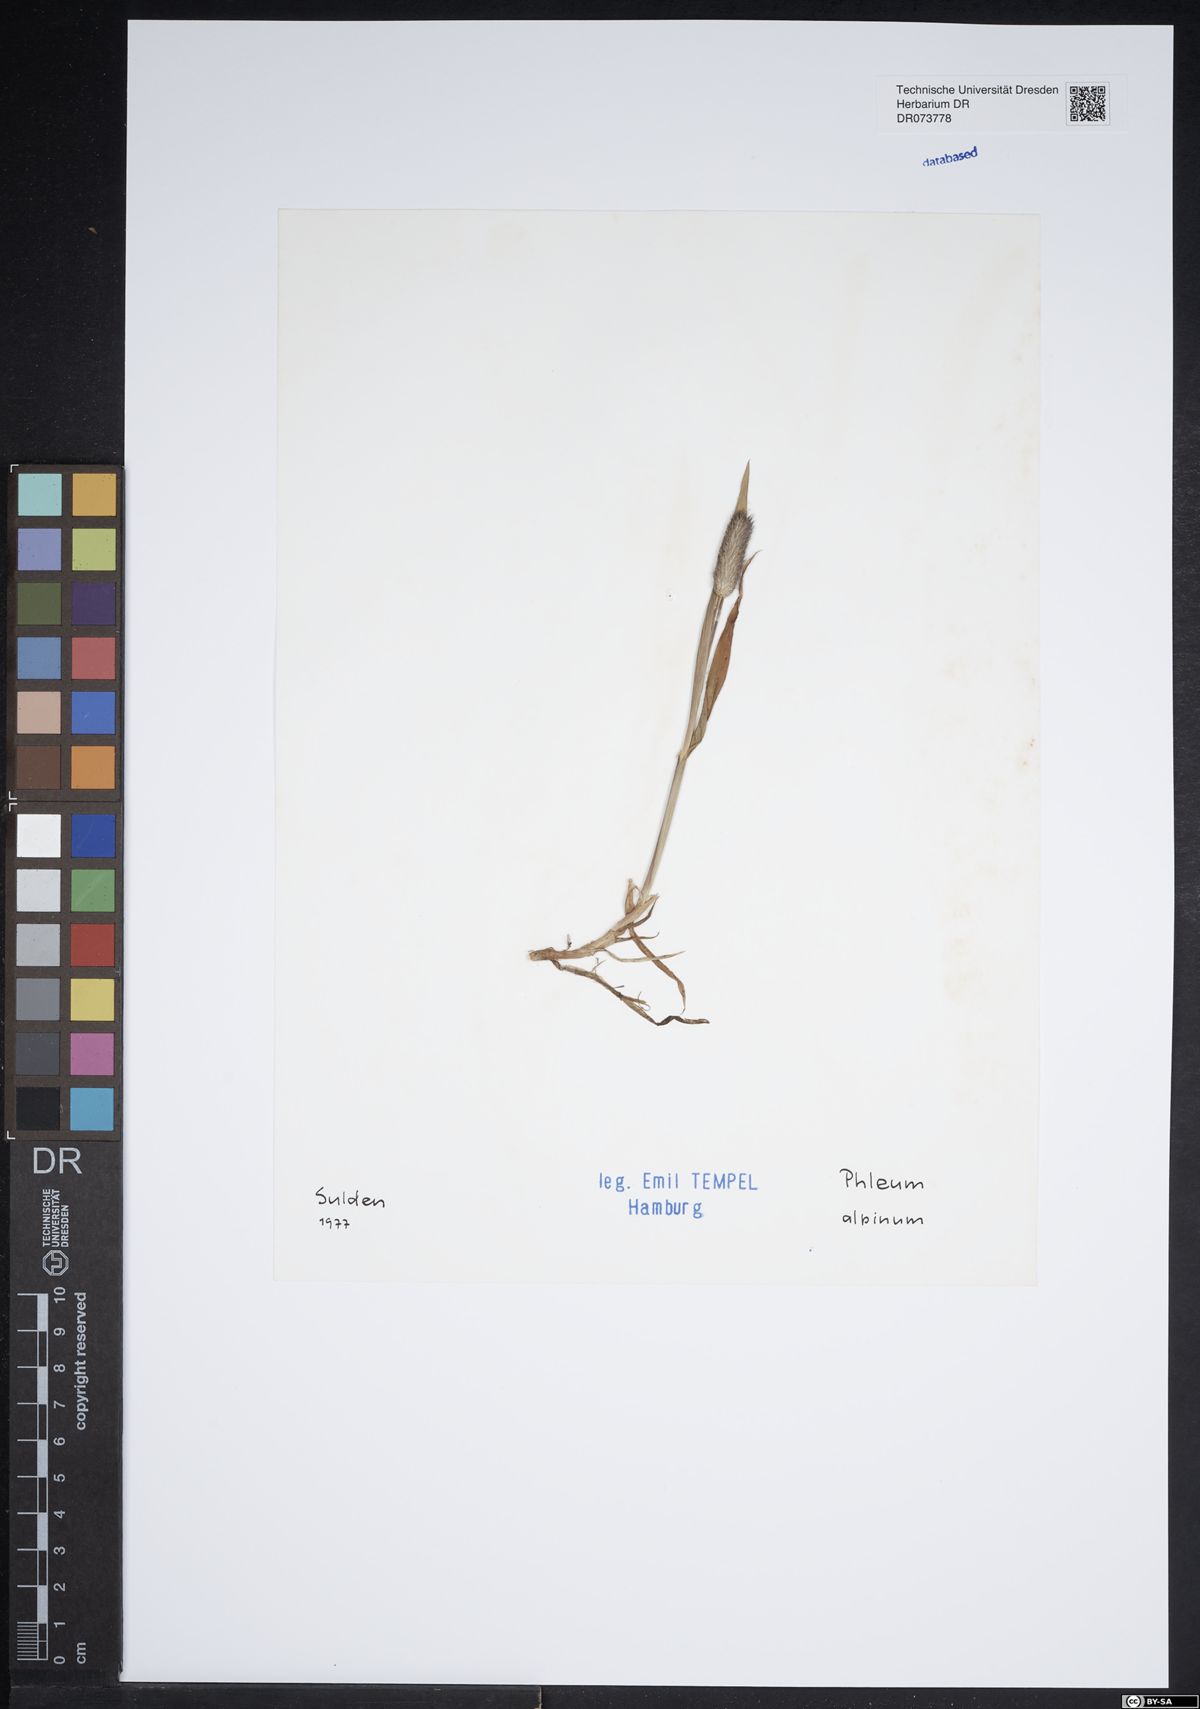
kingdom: Plantae
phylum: Tracheophyta
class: Liliopsida
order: Poales
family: Poaceae
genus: Phleum
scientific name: Phleum alpinum
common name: Alpine cat's-tail
